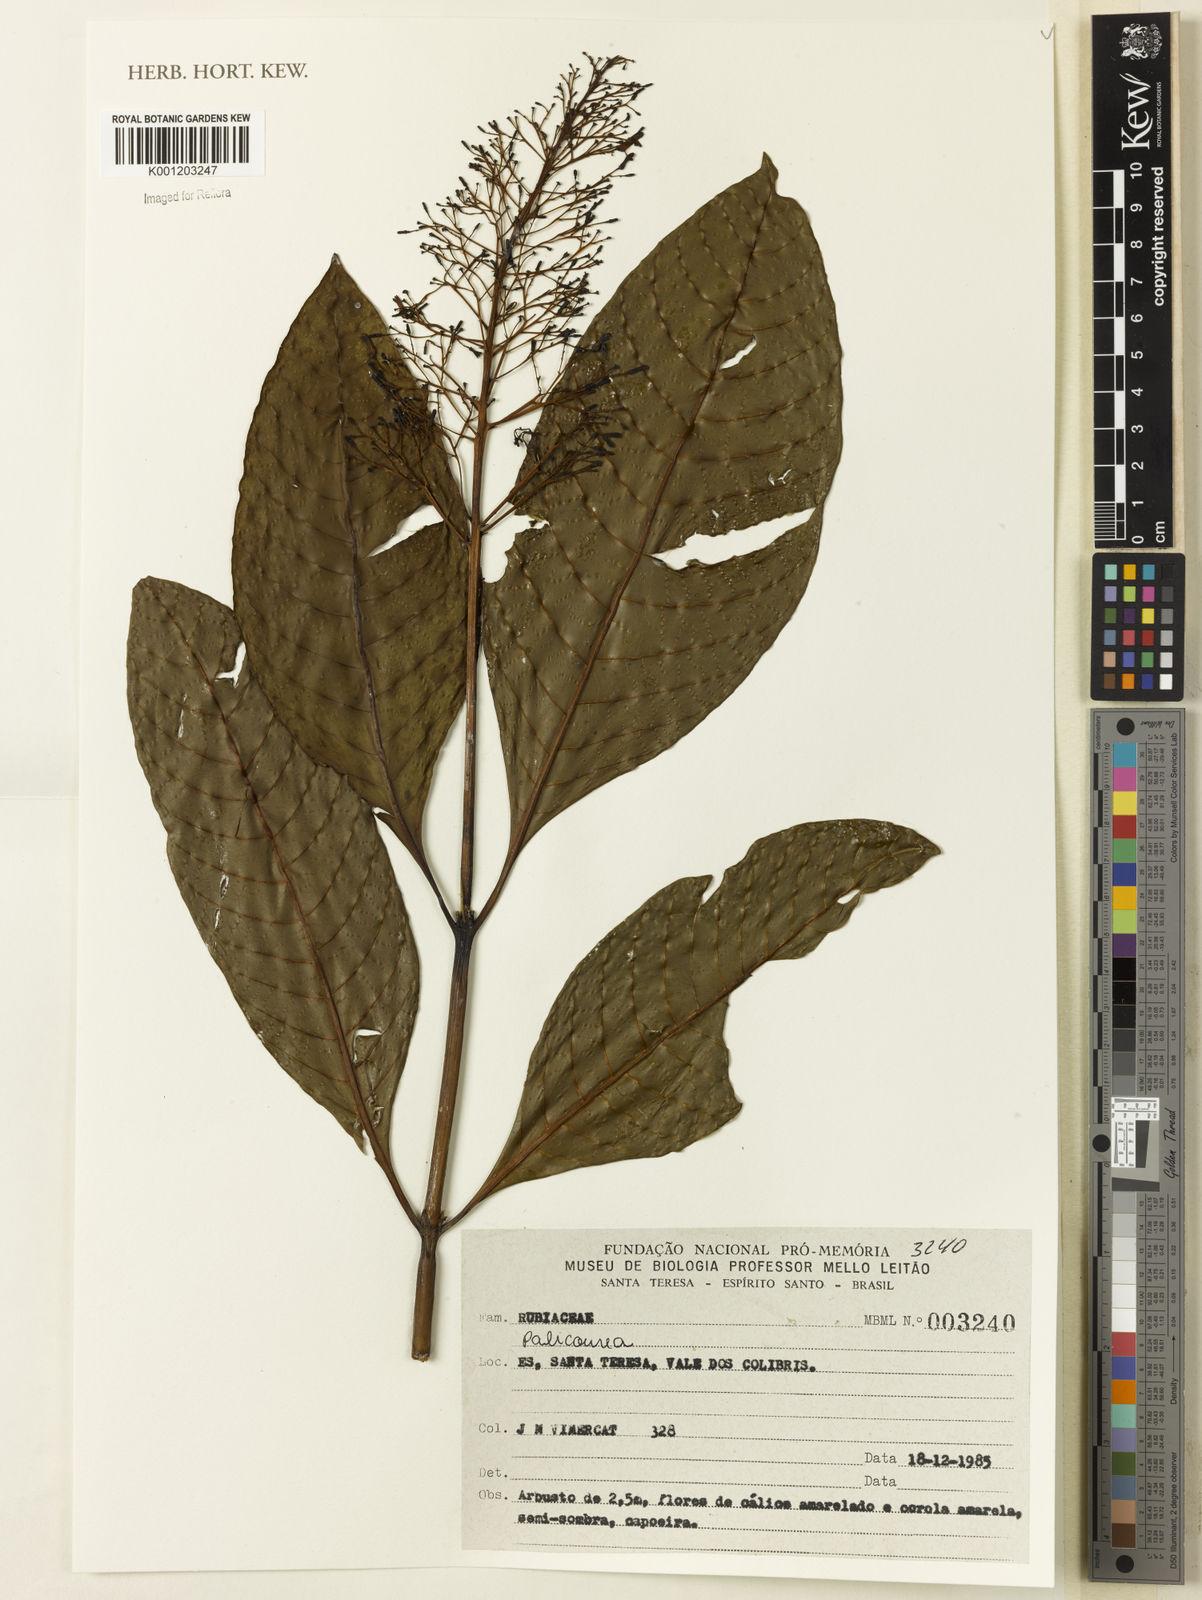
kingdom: Plantae
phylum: Tracheophyta
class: Magnoliopsida
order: Gentianales
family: Rubiaceae
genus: Palicourea
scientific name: Palicourea
